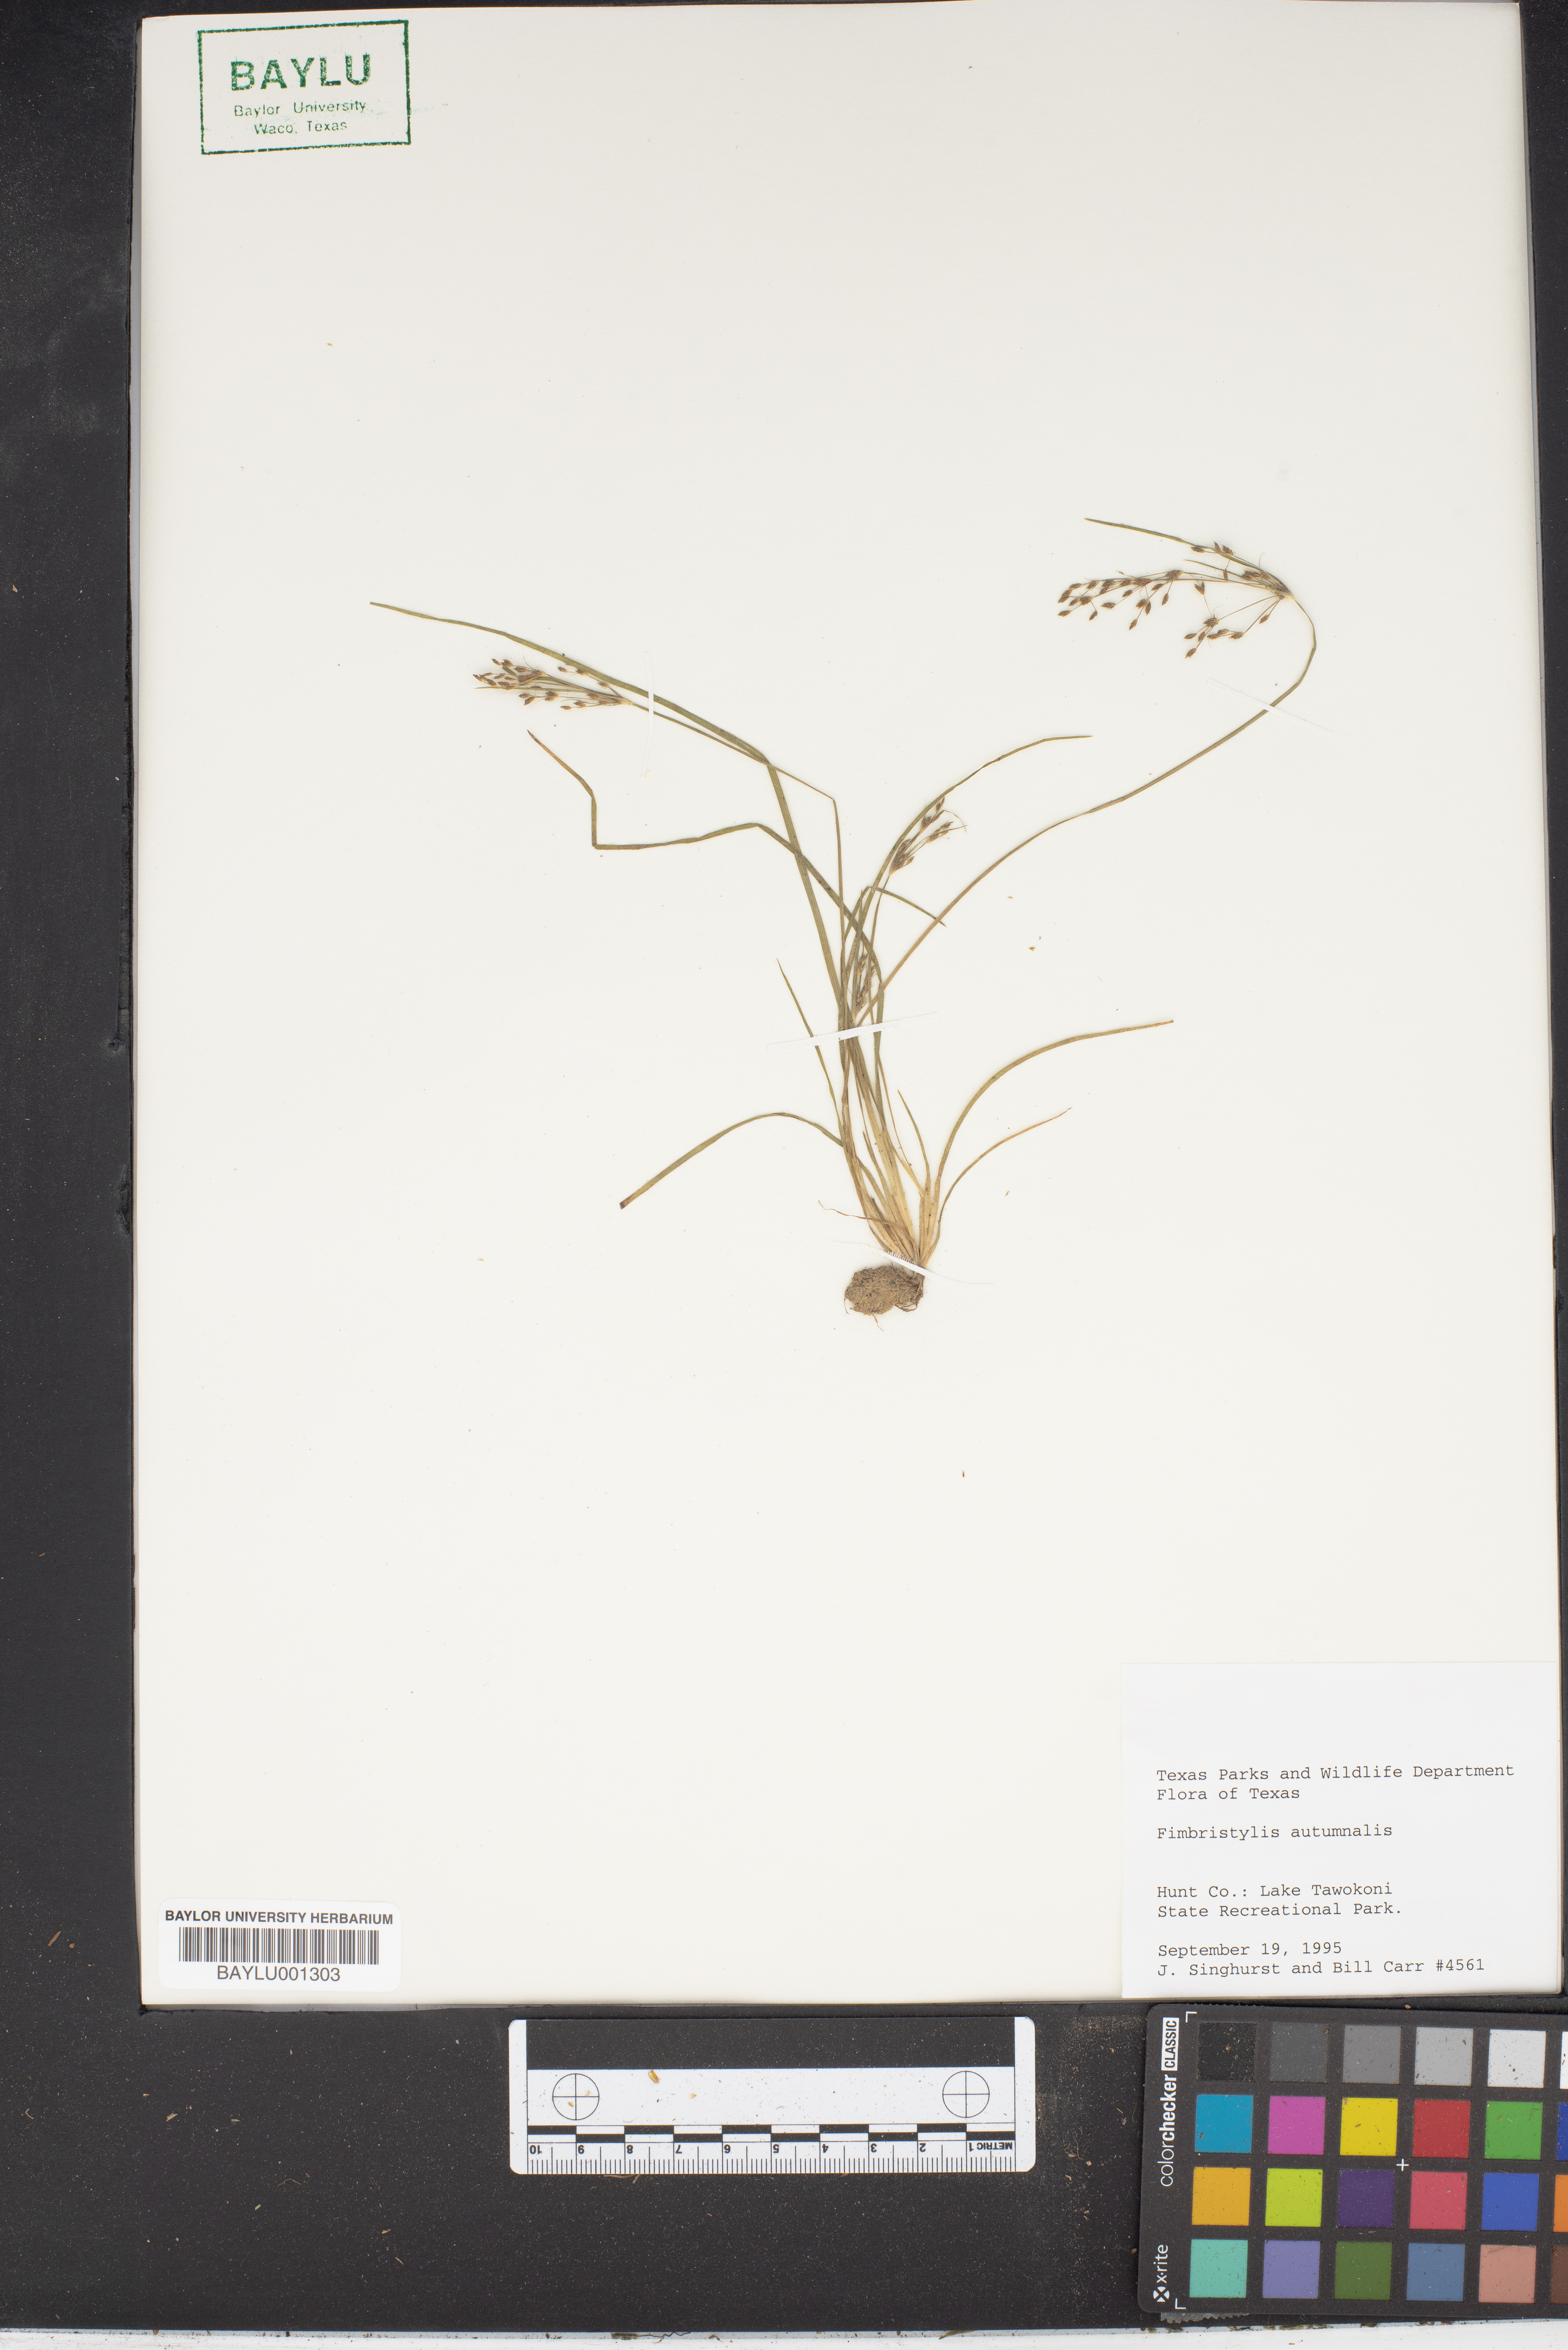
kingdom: Plantae
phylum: Tracheophyta
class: Liliopsida
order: Poales
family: Cyperaceae
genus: Fimbristylis
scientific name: Fimbristylis autumnalis
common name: Slender fimbristylis
